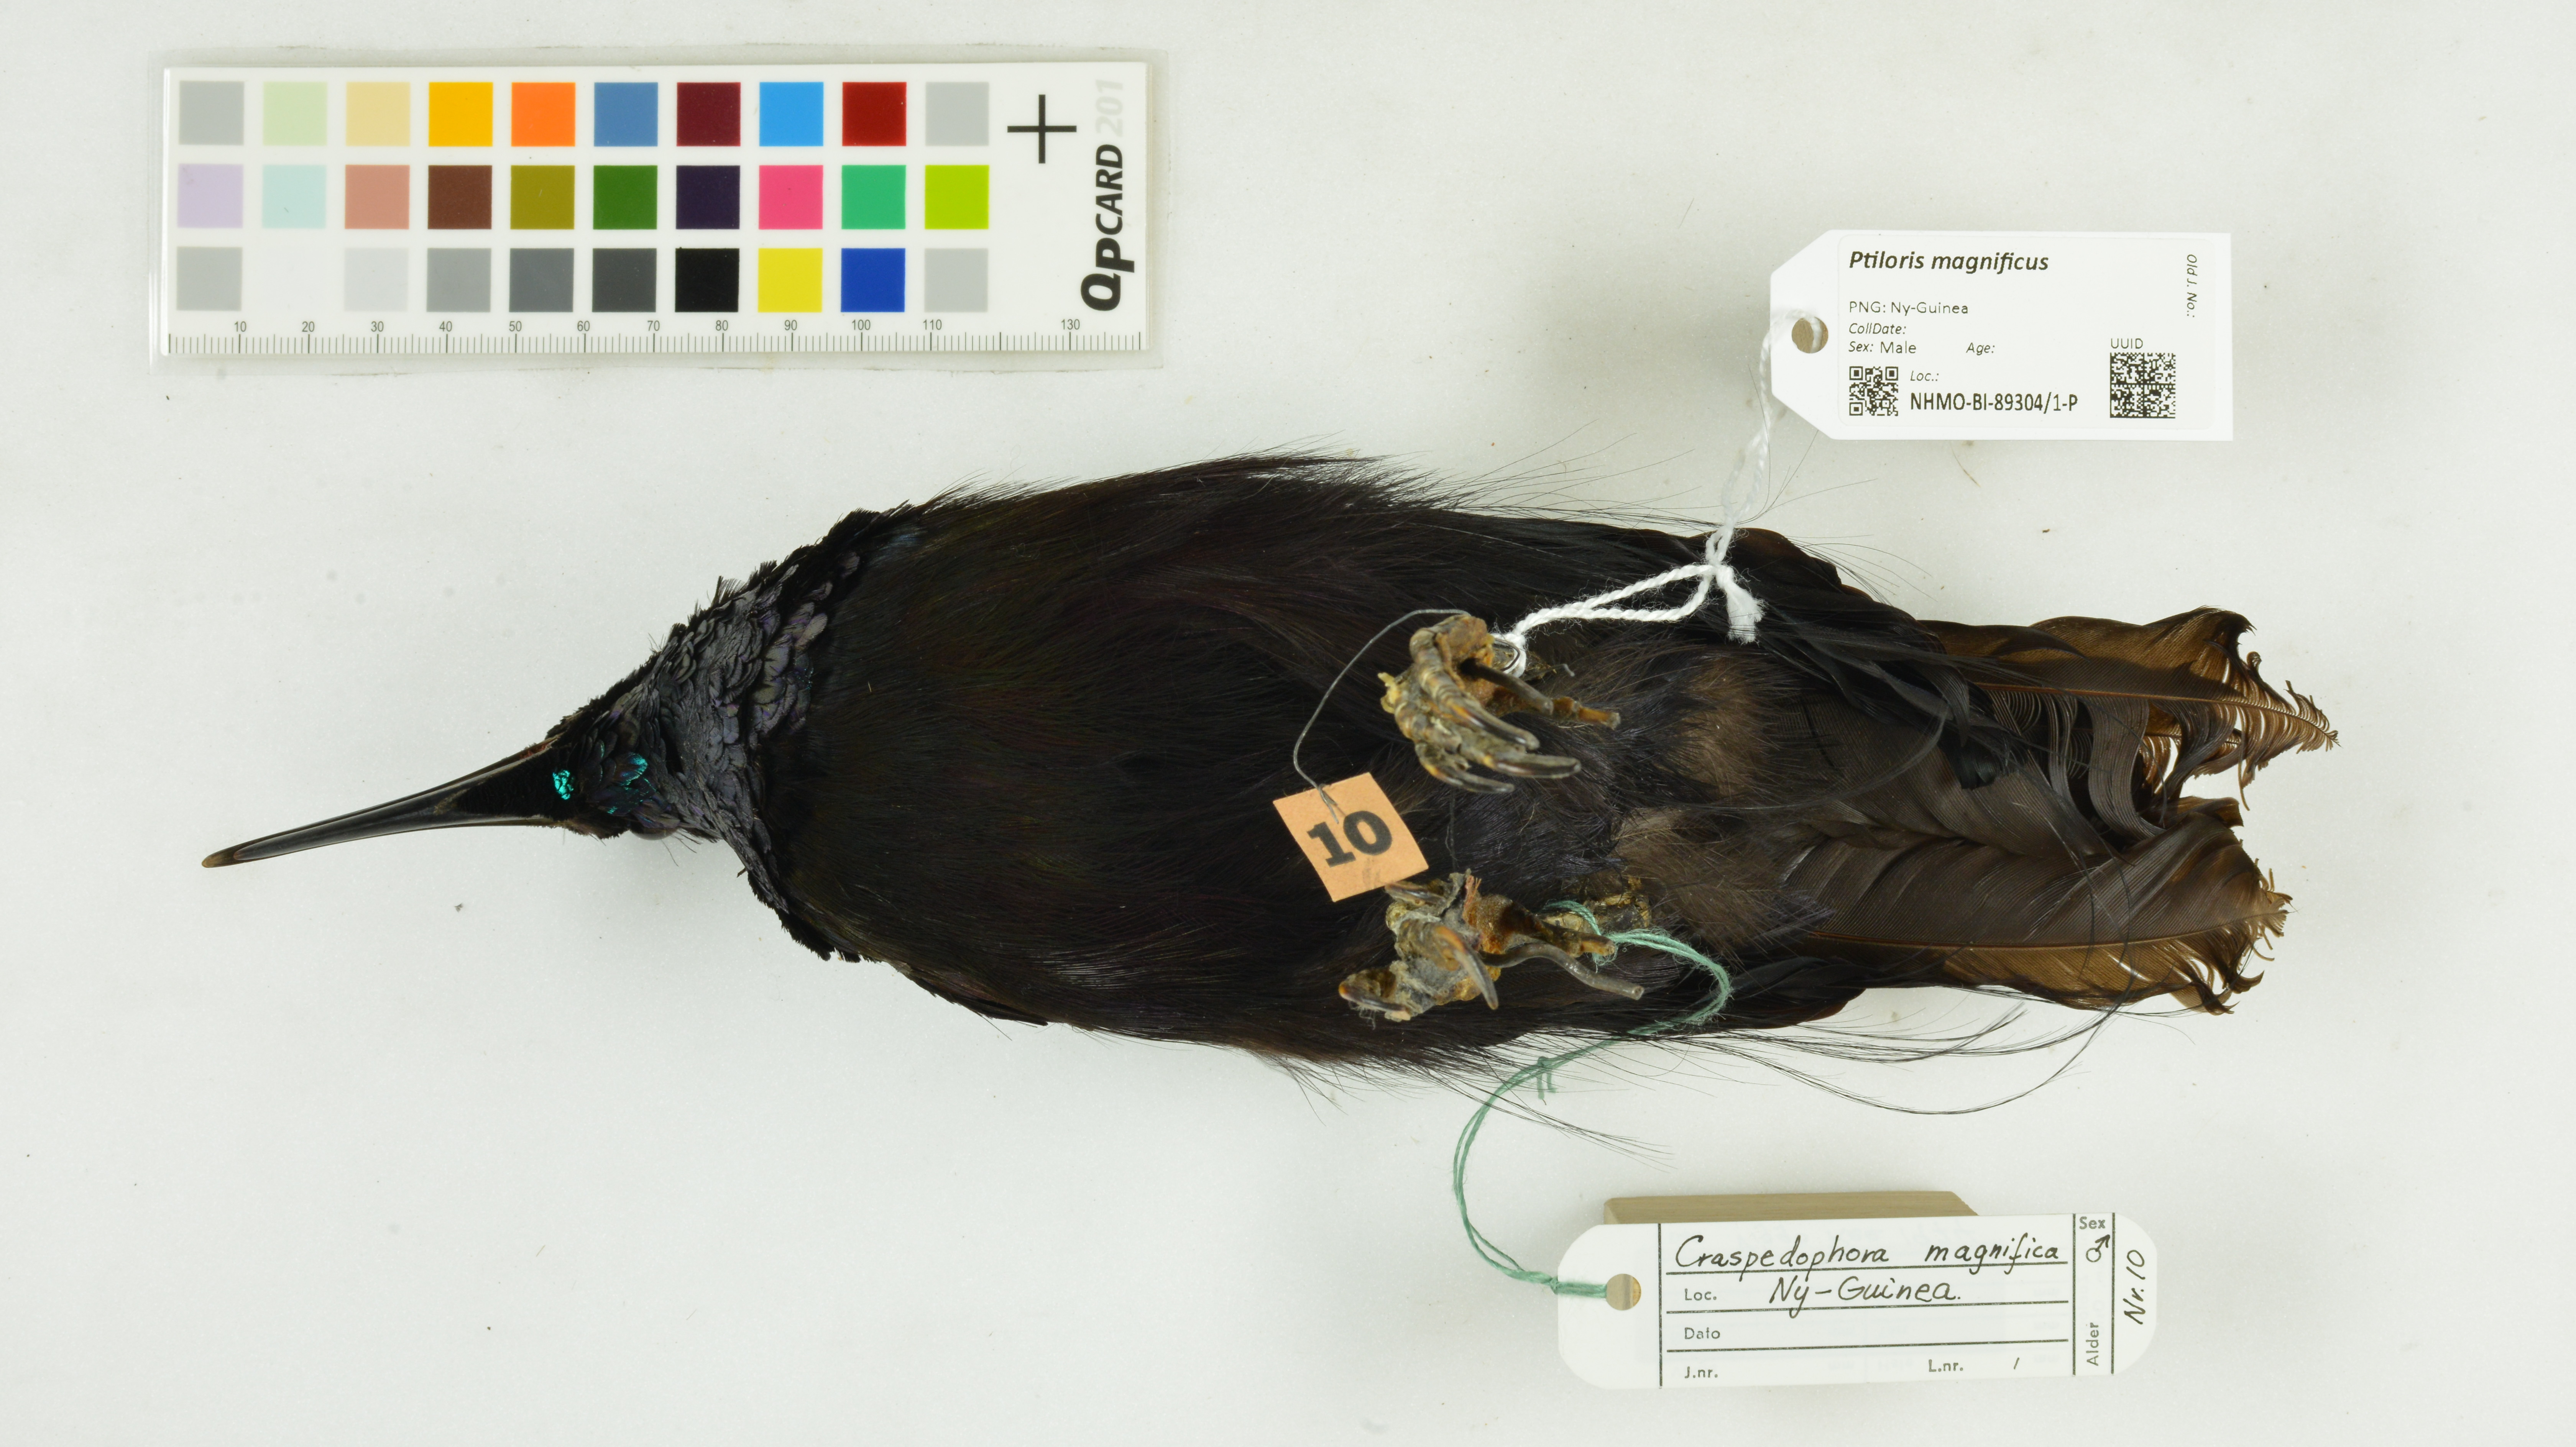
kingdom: Animalia
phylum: Chordata
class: Aves
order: Passeriformes
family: Paradisaeidae
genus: Ptiloris
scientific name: Ptiloris magnificus
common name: Magnificent riflebird
